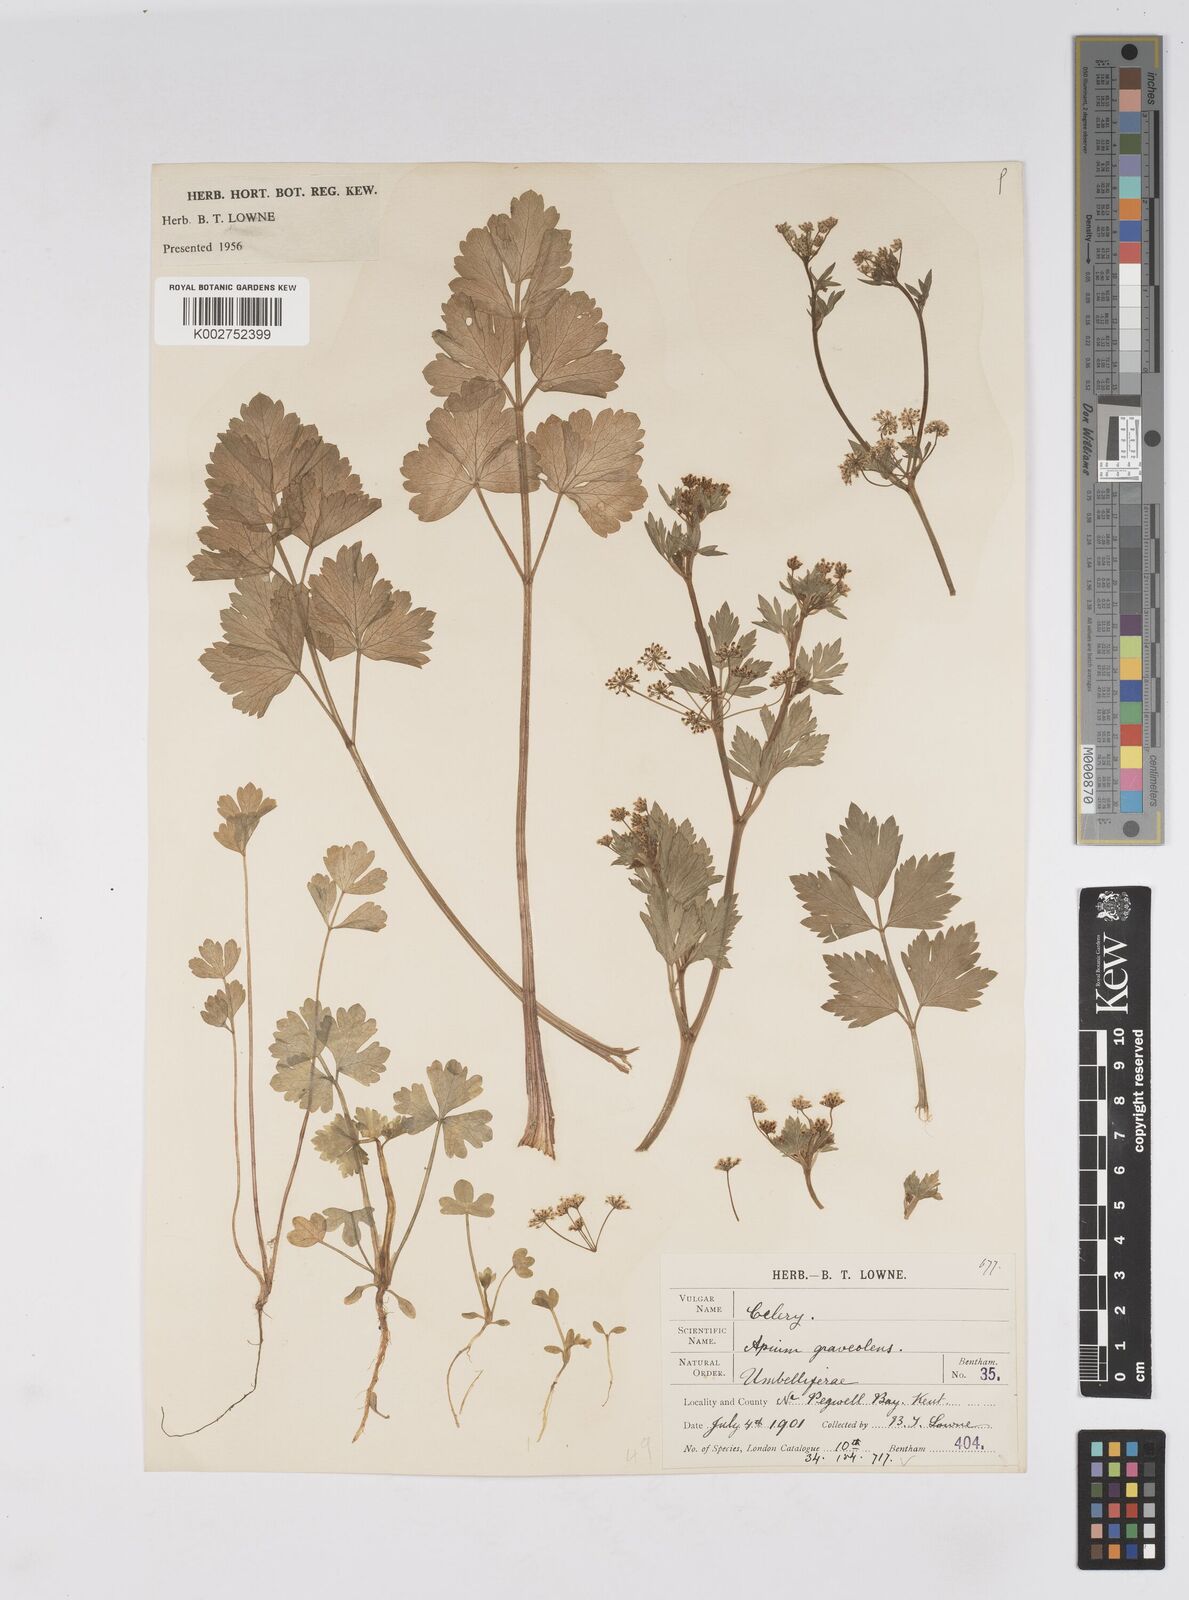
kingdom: Plantae
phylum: Tracheophyta
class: Magnoliopsida
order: Apiales
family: Apiaceae
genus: Apium
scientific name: Apium graveolens
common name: Wild celery
